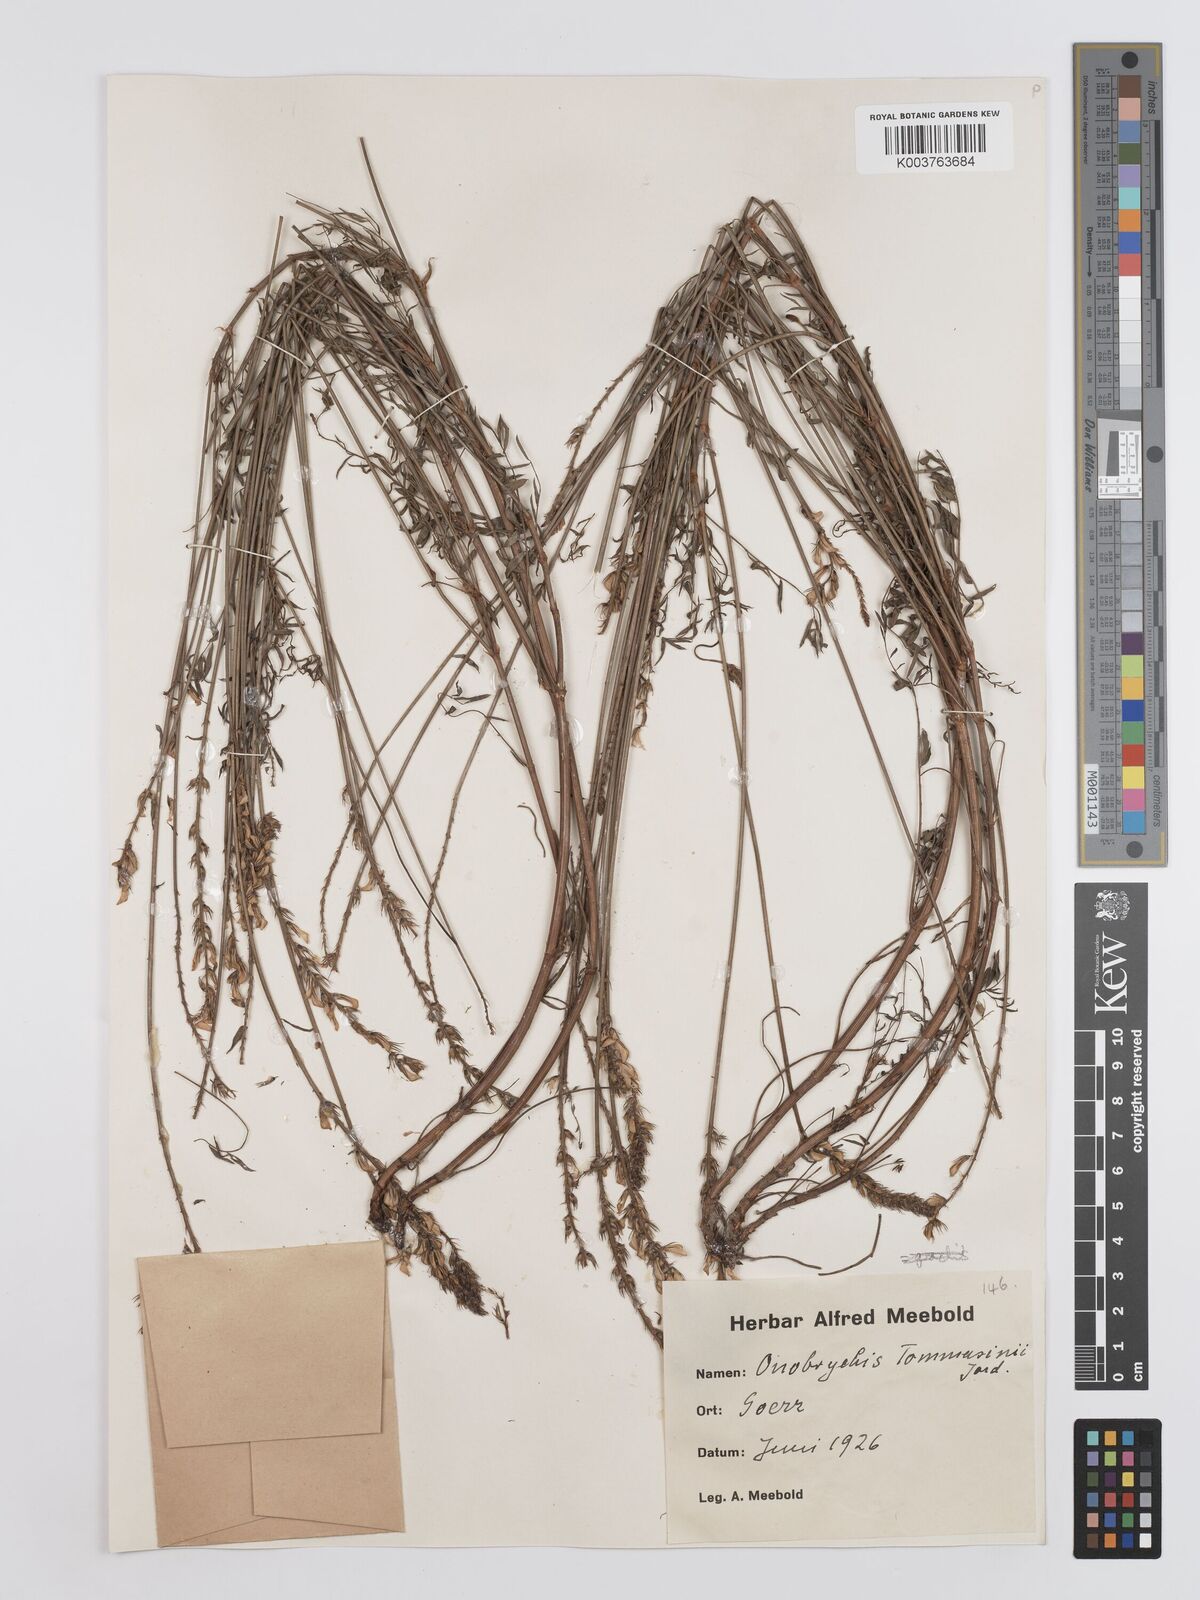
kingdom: Plantae
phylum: Tracheophyta
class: Magnoliopsida
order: Fabales
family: Fabaceae
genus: Onobrychis
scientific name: Onobrychis arenaria
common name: Sand esparcet
